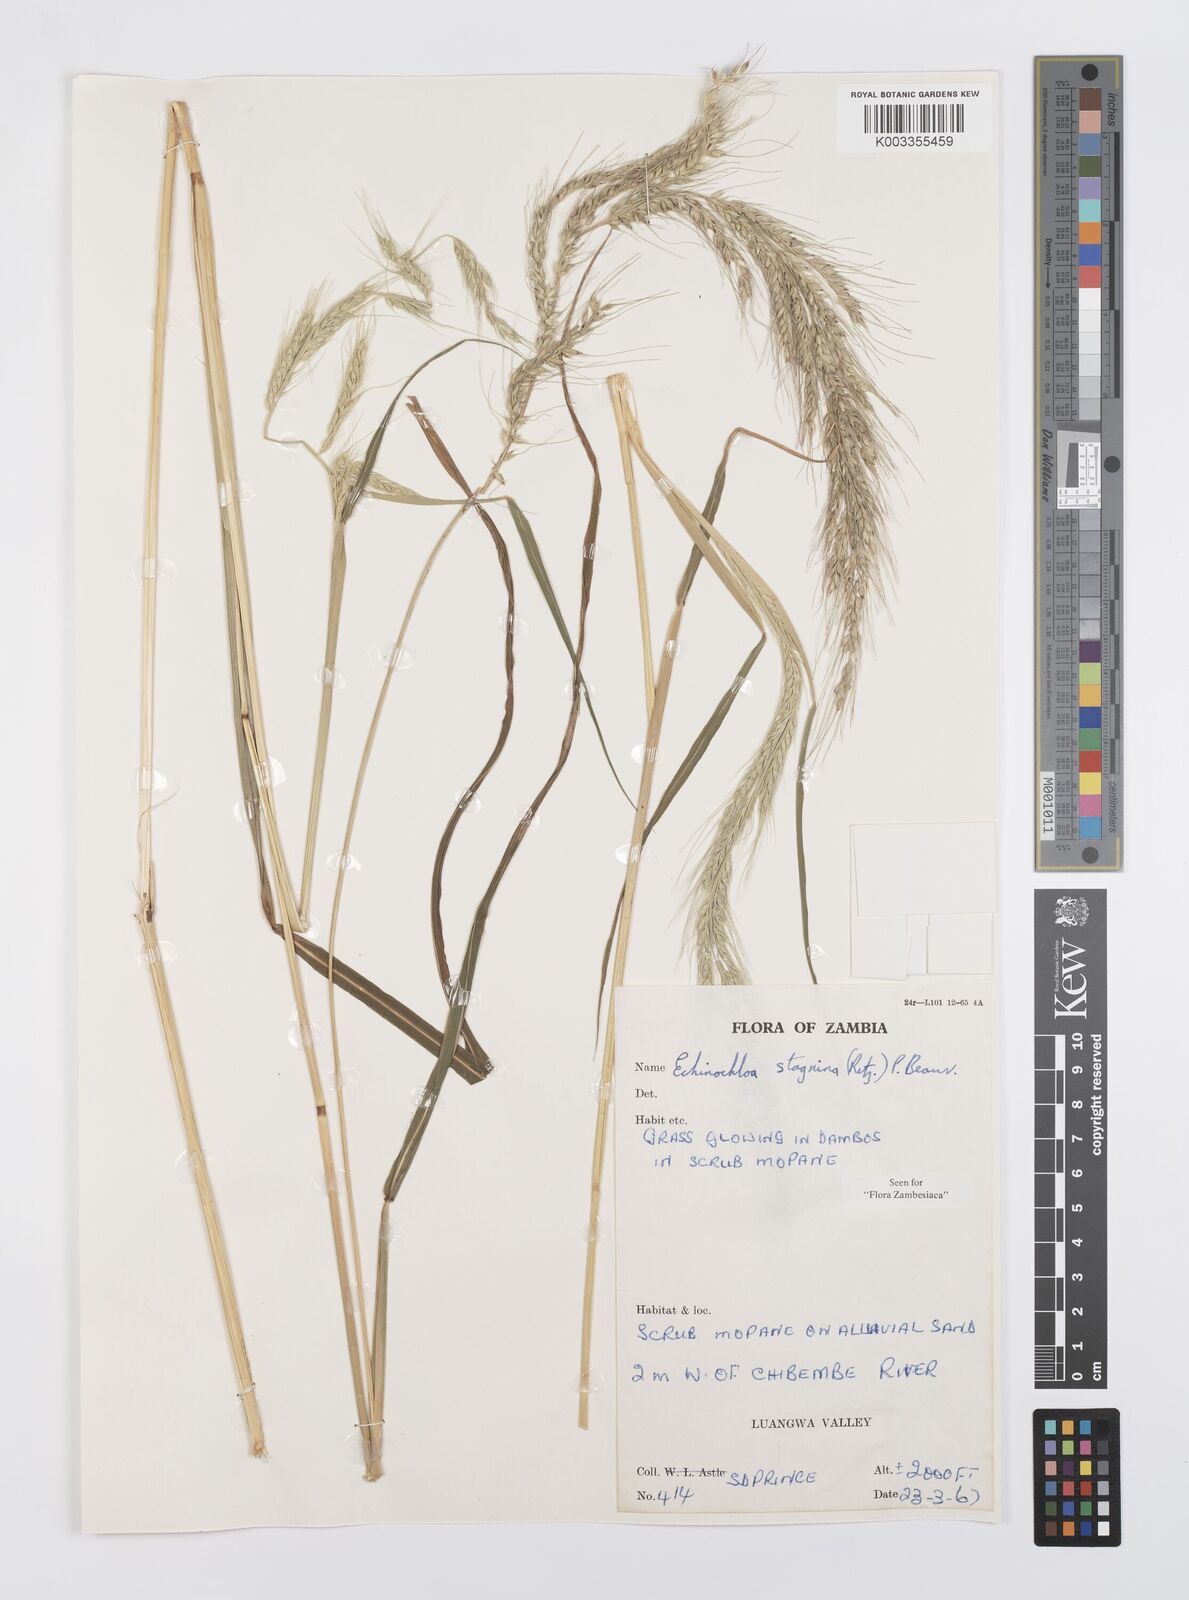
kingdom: Plantae
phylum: Tracheophyta
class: Liliopsida
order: Poales
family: Poaceae
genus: Echinochloa
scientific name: Echinochloa stagnina
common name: Burgu grass
